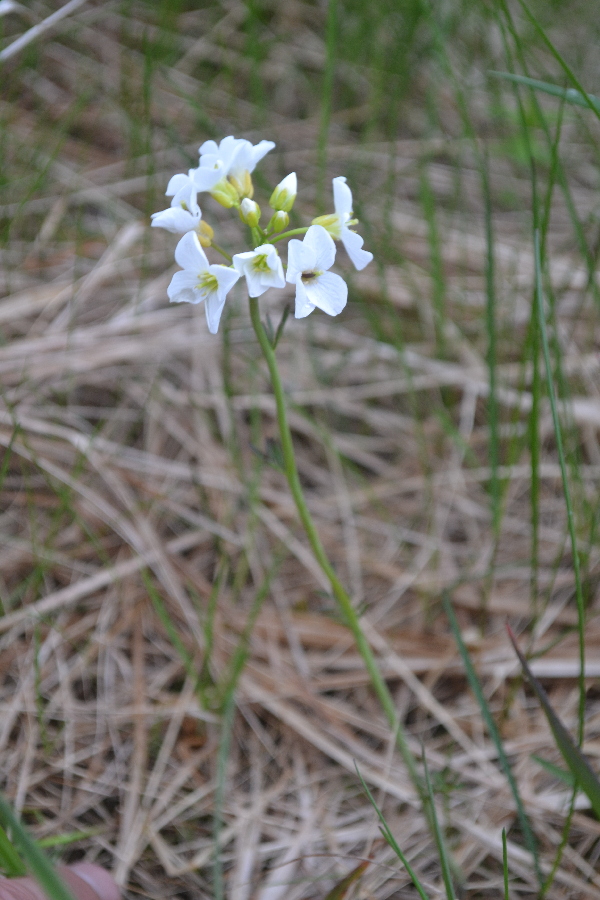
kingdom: Plantae
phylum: Tracheophyta
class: Magnoliopsida
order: Brassicales
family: Brassicaceae
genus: Cardamine
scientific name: Cardamine pratensis
